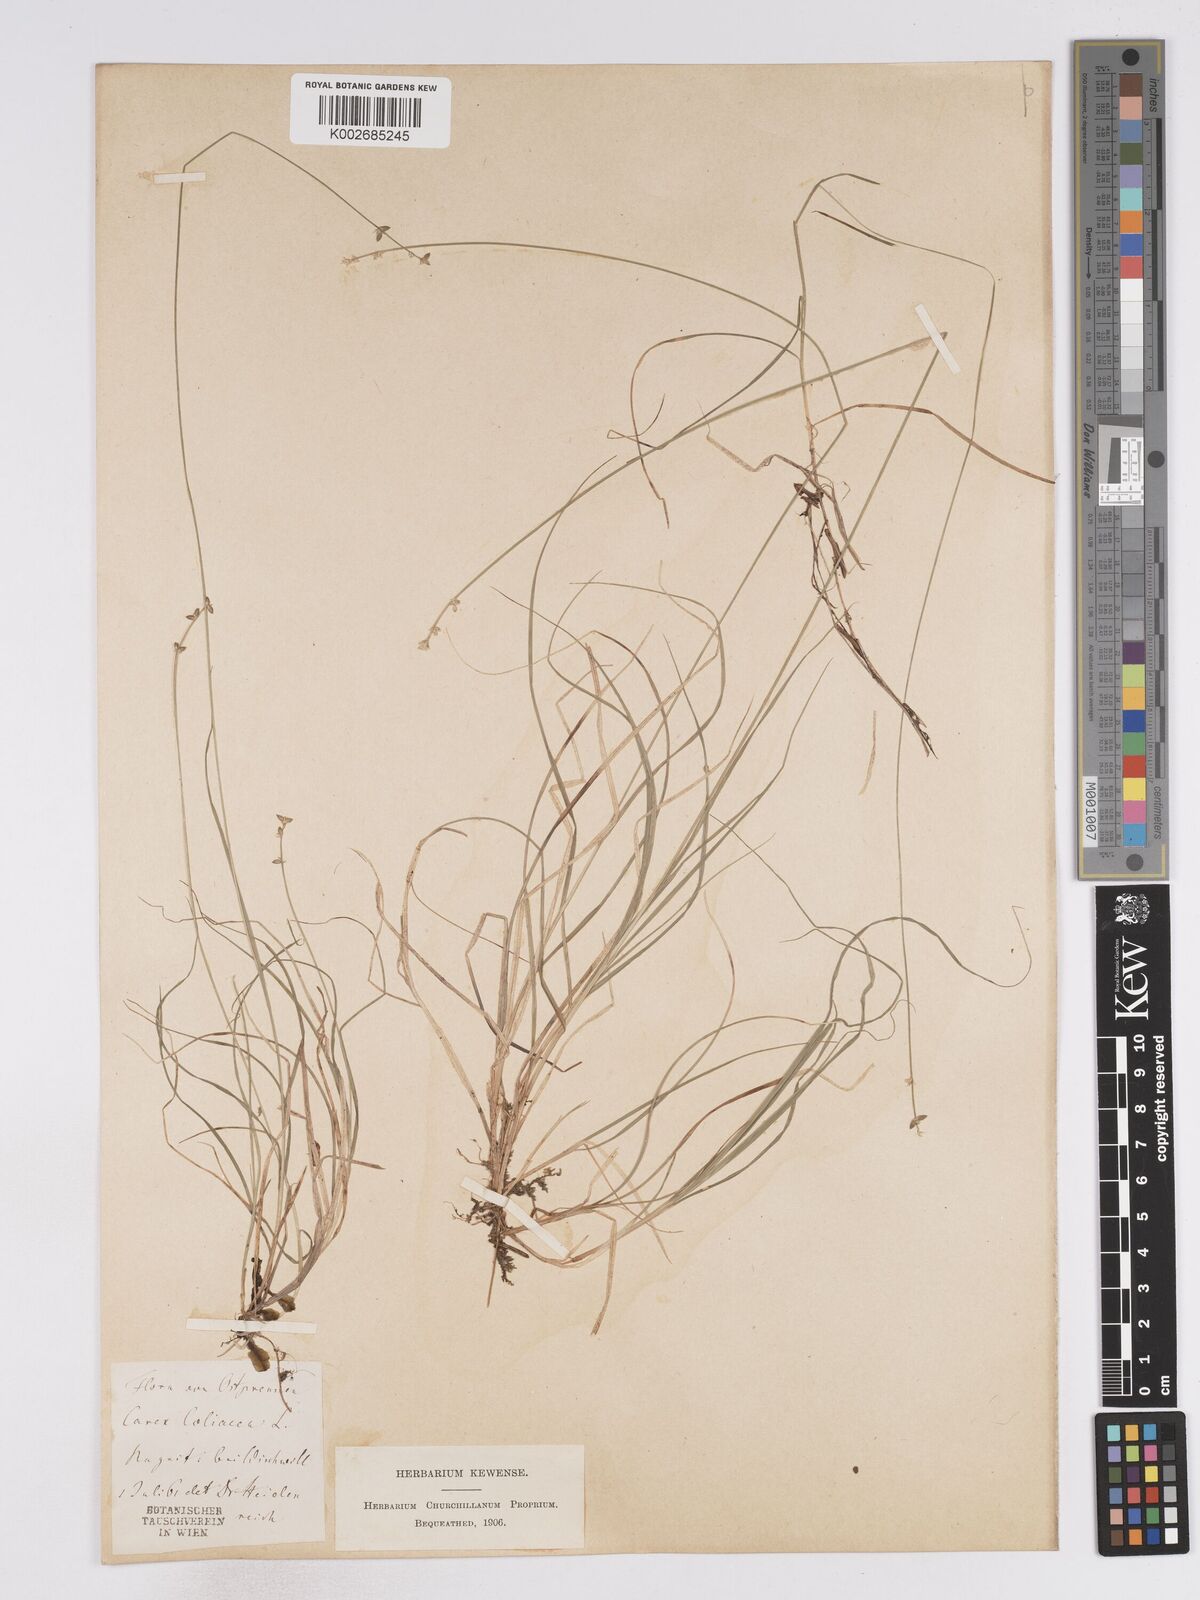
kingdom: Plantae
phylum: Tracheophyta
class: Liliopsida
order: Poales
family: Cyperaceae
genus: Carex
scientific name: Carex loliacea
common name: Ryegrass sedge
